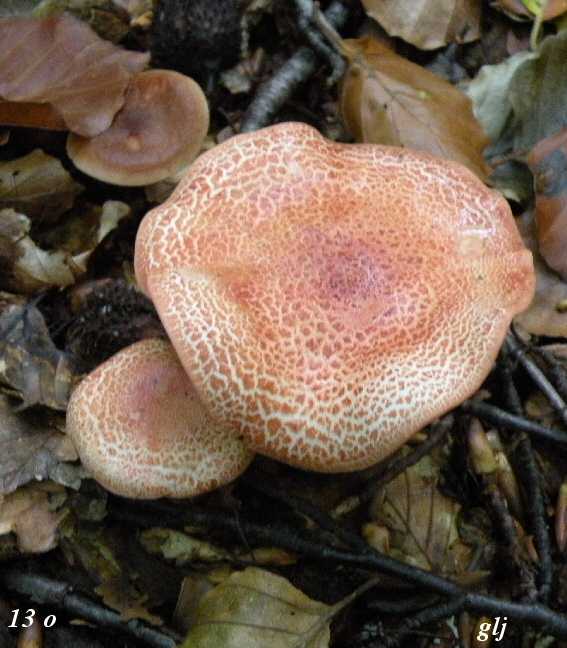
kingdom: Fungi
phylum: Basidiomycota
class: Agaricomycetes
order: Agaricales
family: Cortinariaceae
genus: Cortinarius
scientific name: Cortinarius bolaris
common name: cinnoberskællet slørhat
